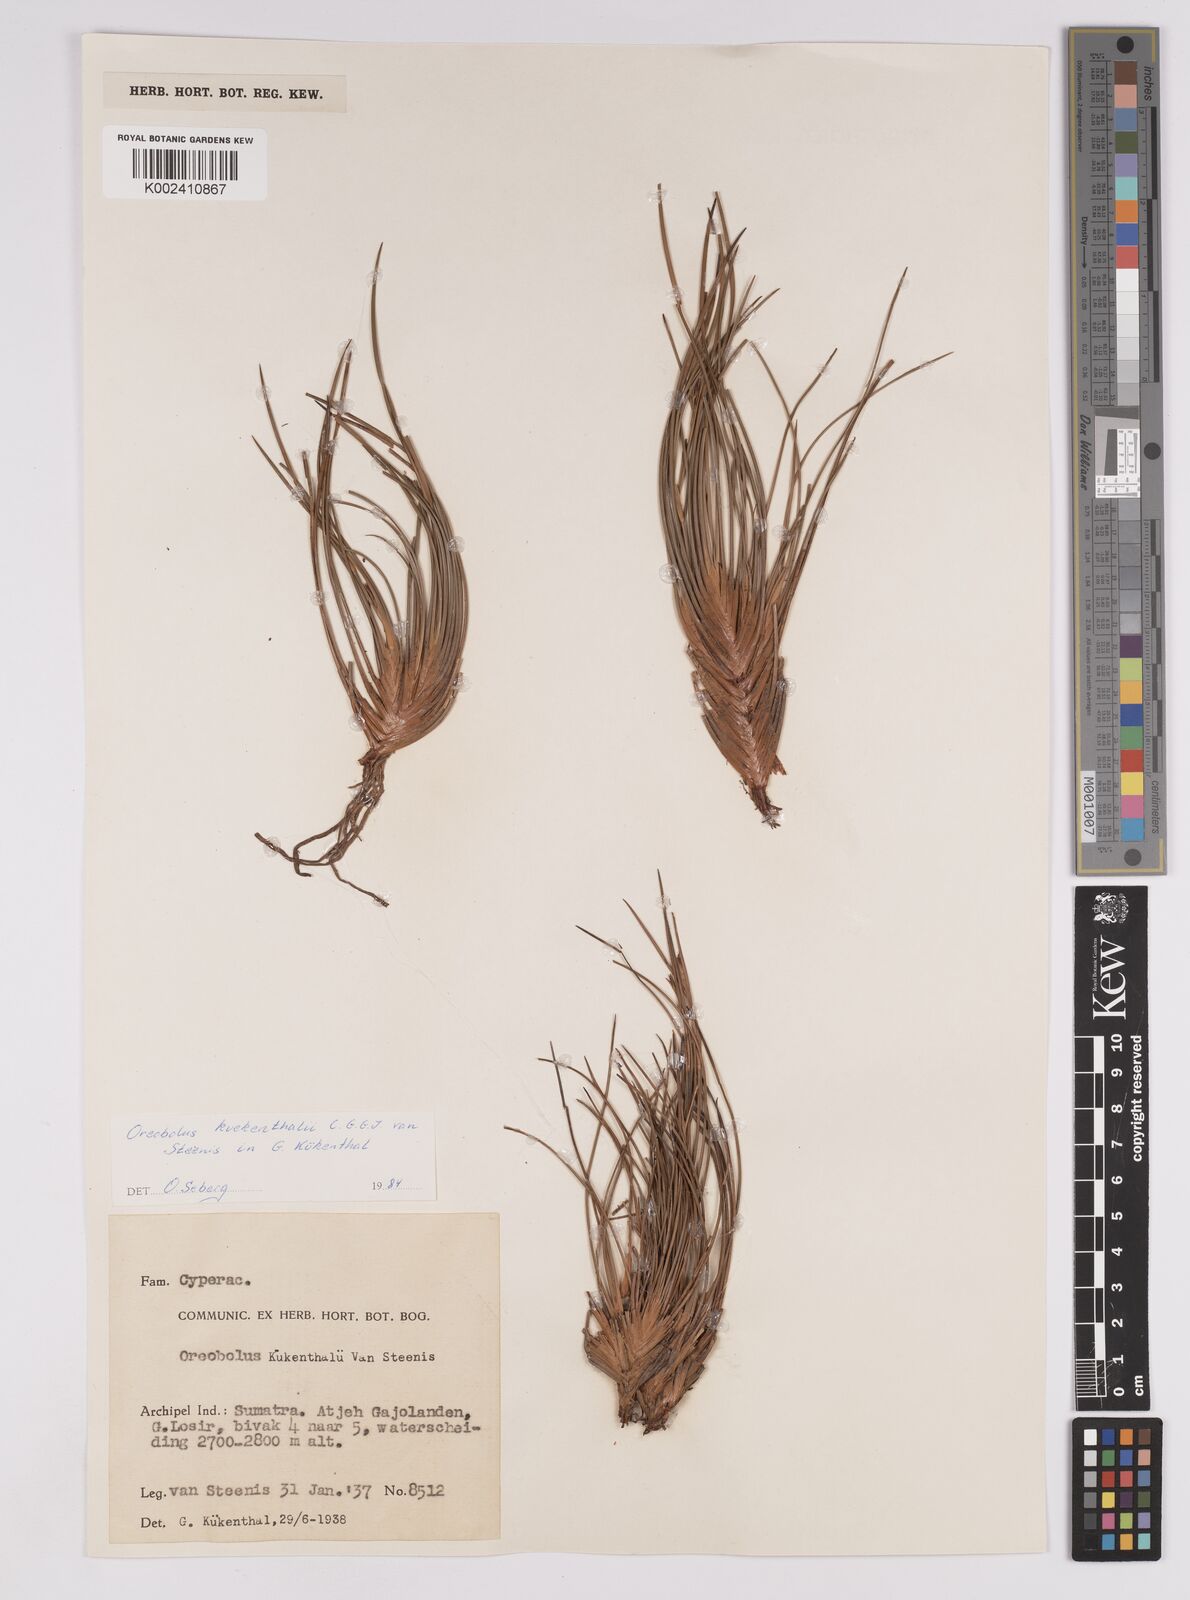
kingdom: Plantae
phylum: Tracheophyta
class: Liliopsida
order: Poales
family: Cyperaceae
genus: Oreobolus
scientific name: Oreobolus kuekenthalii
